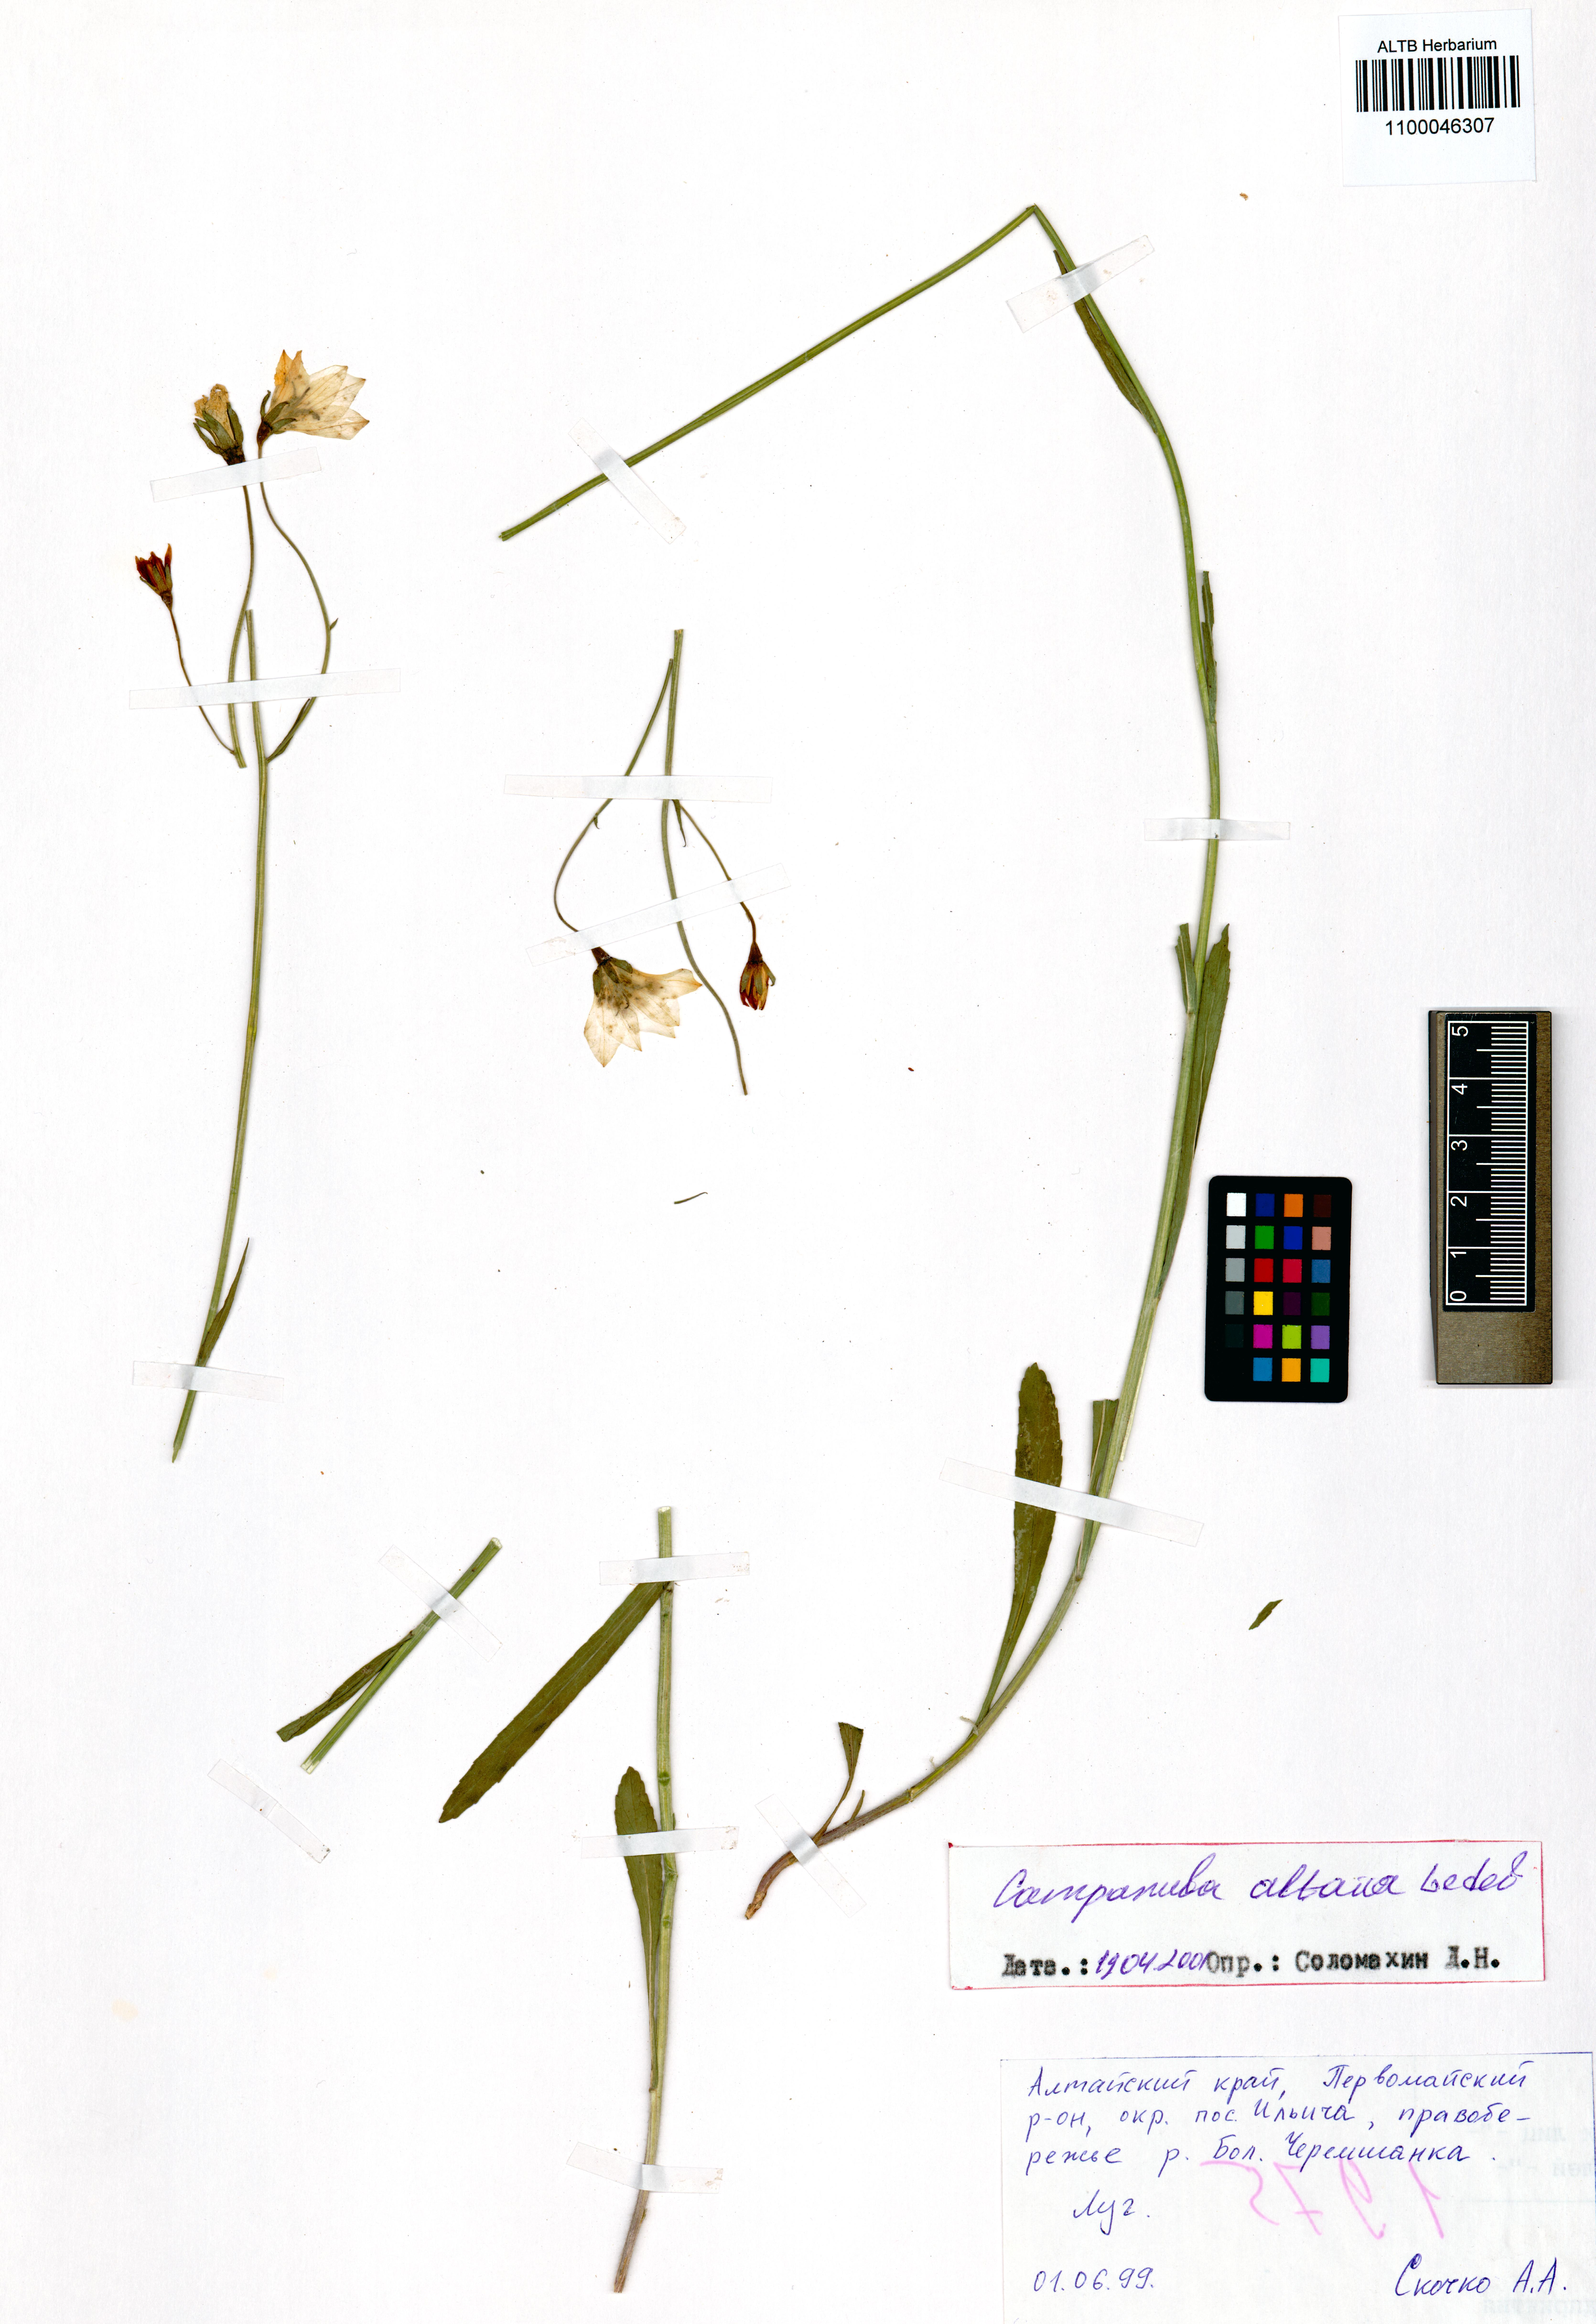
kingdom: Plantae
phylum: Tracheophyta
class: Magnoliopsida
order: Asterales
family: Campanulaceae
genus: Campanula
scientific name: Campanula stevenii
